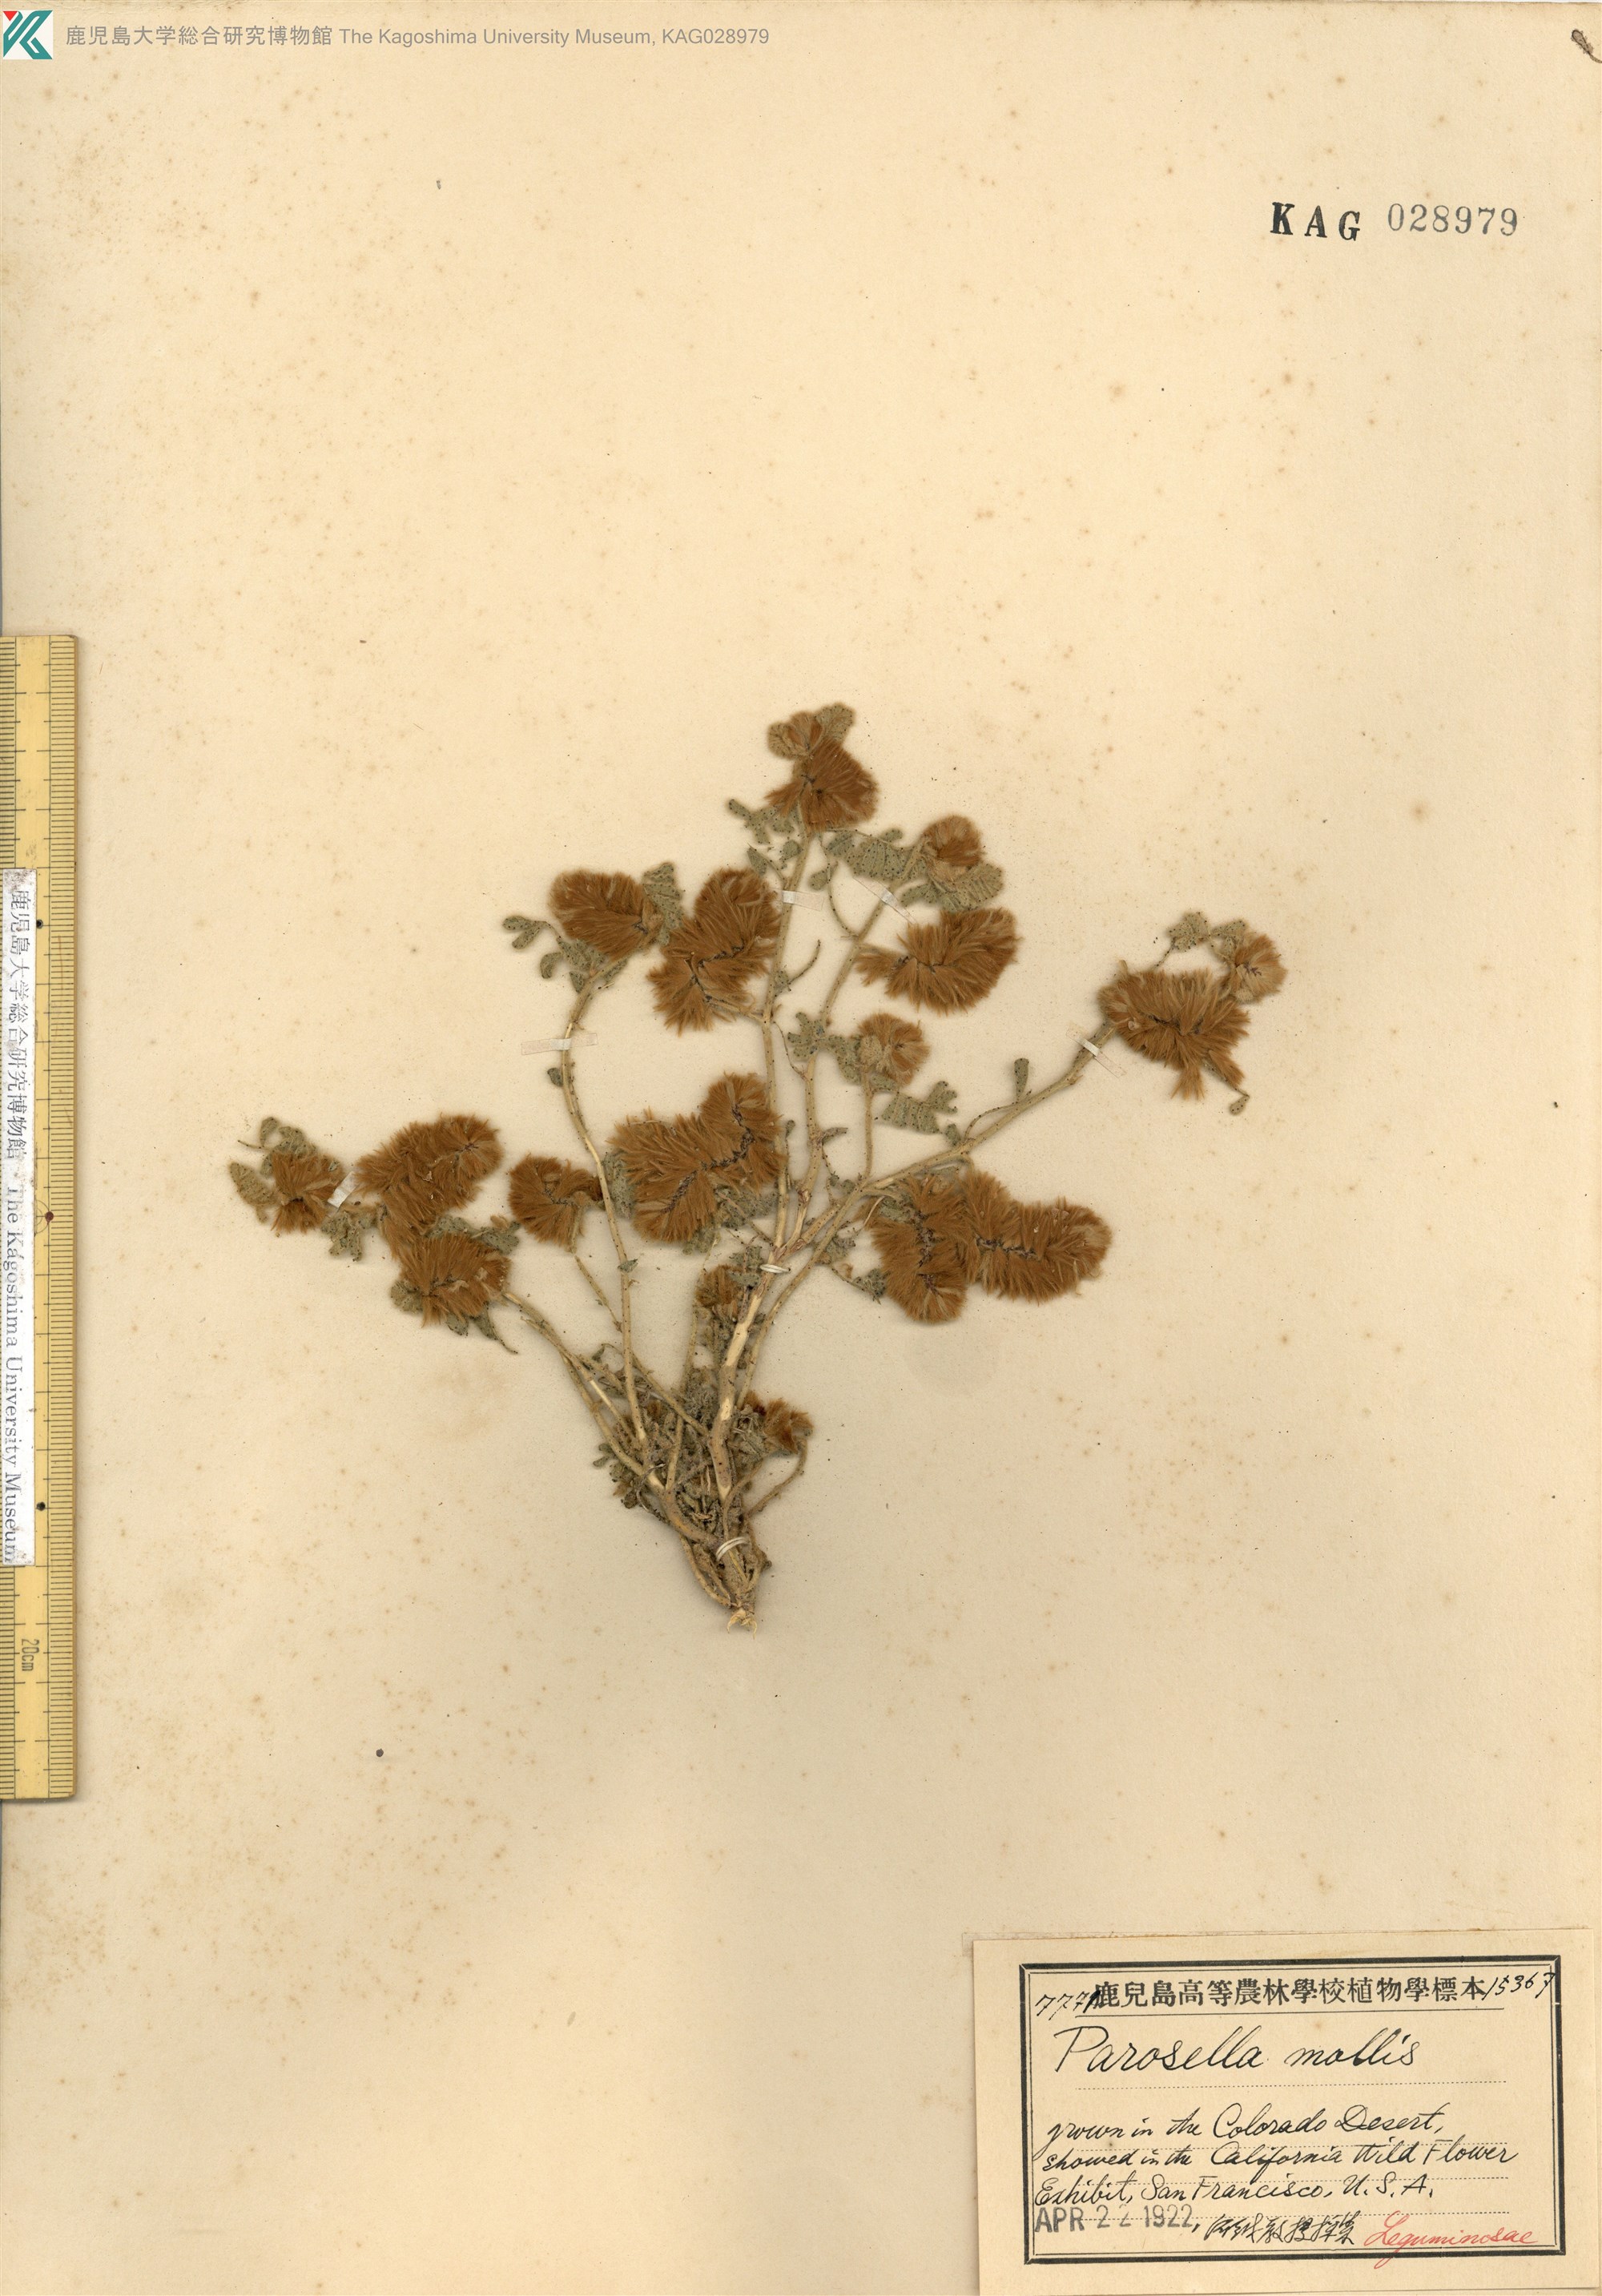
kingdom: Plantae
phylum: Tracheophyta
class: Magnoliopsida
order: Fabales
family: Fabaceae
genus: Dalea
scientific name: Dalea mollis
